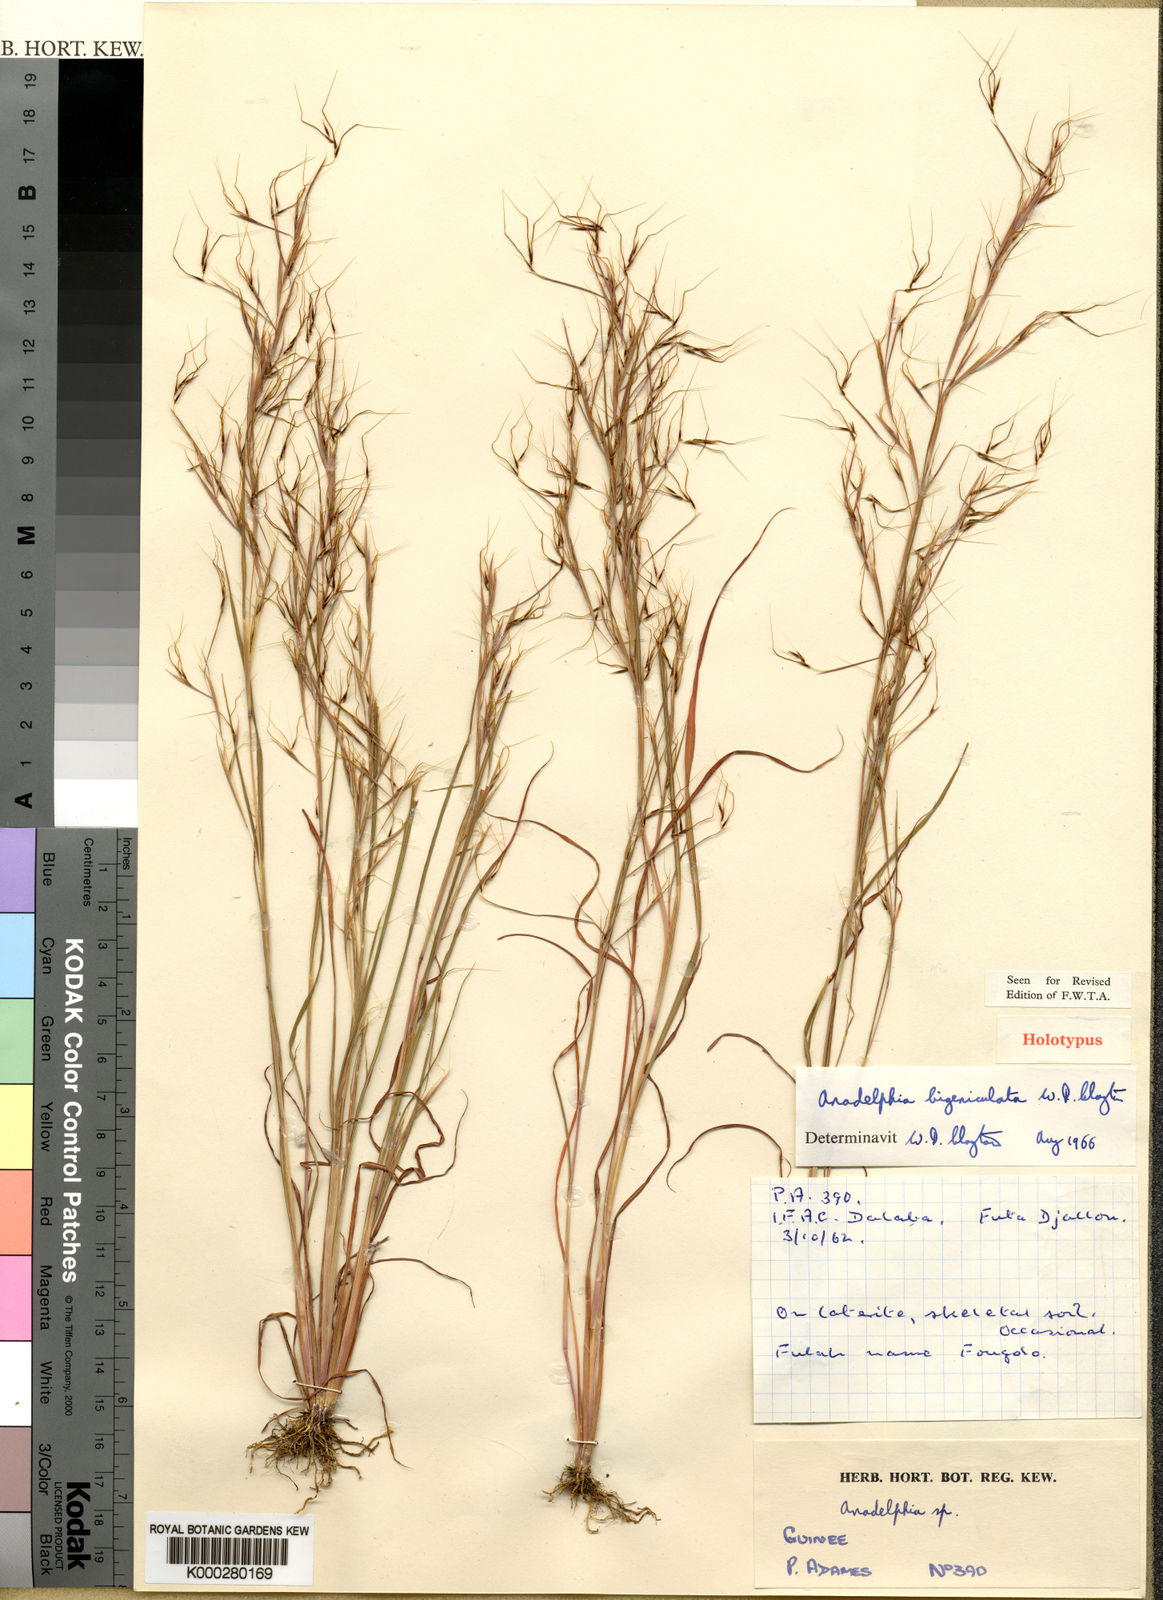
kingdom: Plantae
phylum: Tracheophyta
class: Liliopsida
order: Poales
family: Poaceae
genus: Anadelphia
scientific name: Anadelphia bigeniculata
